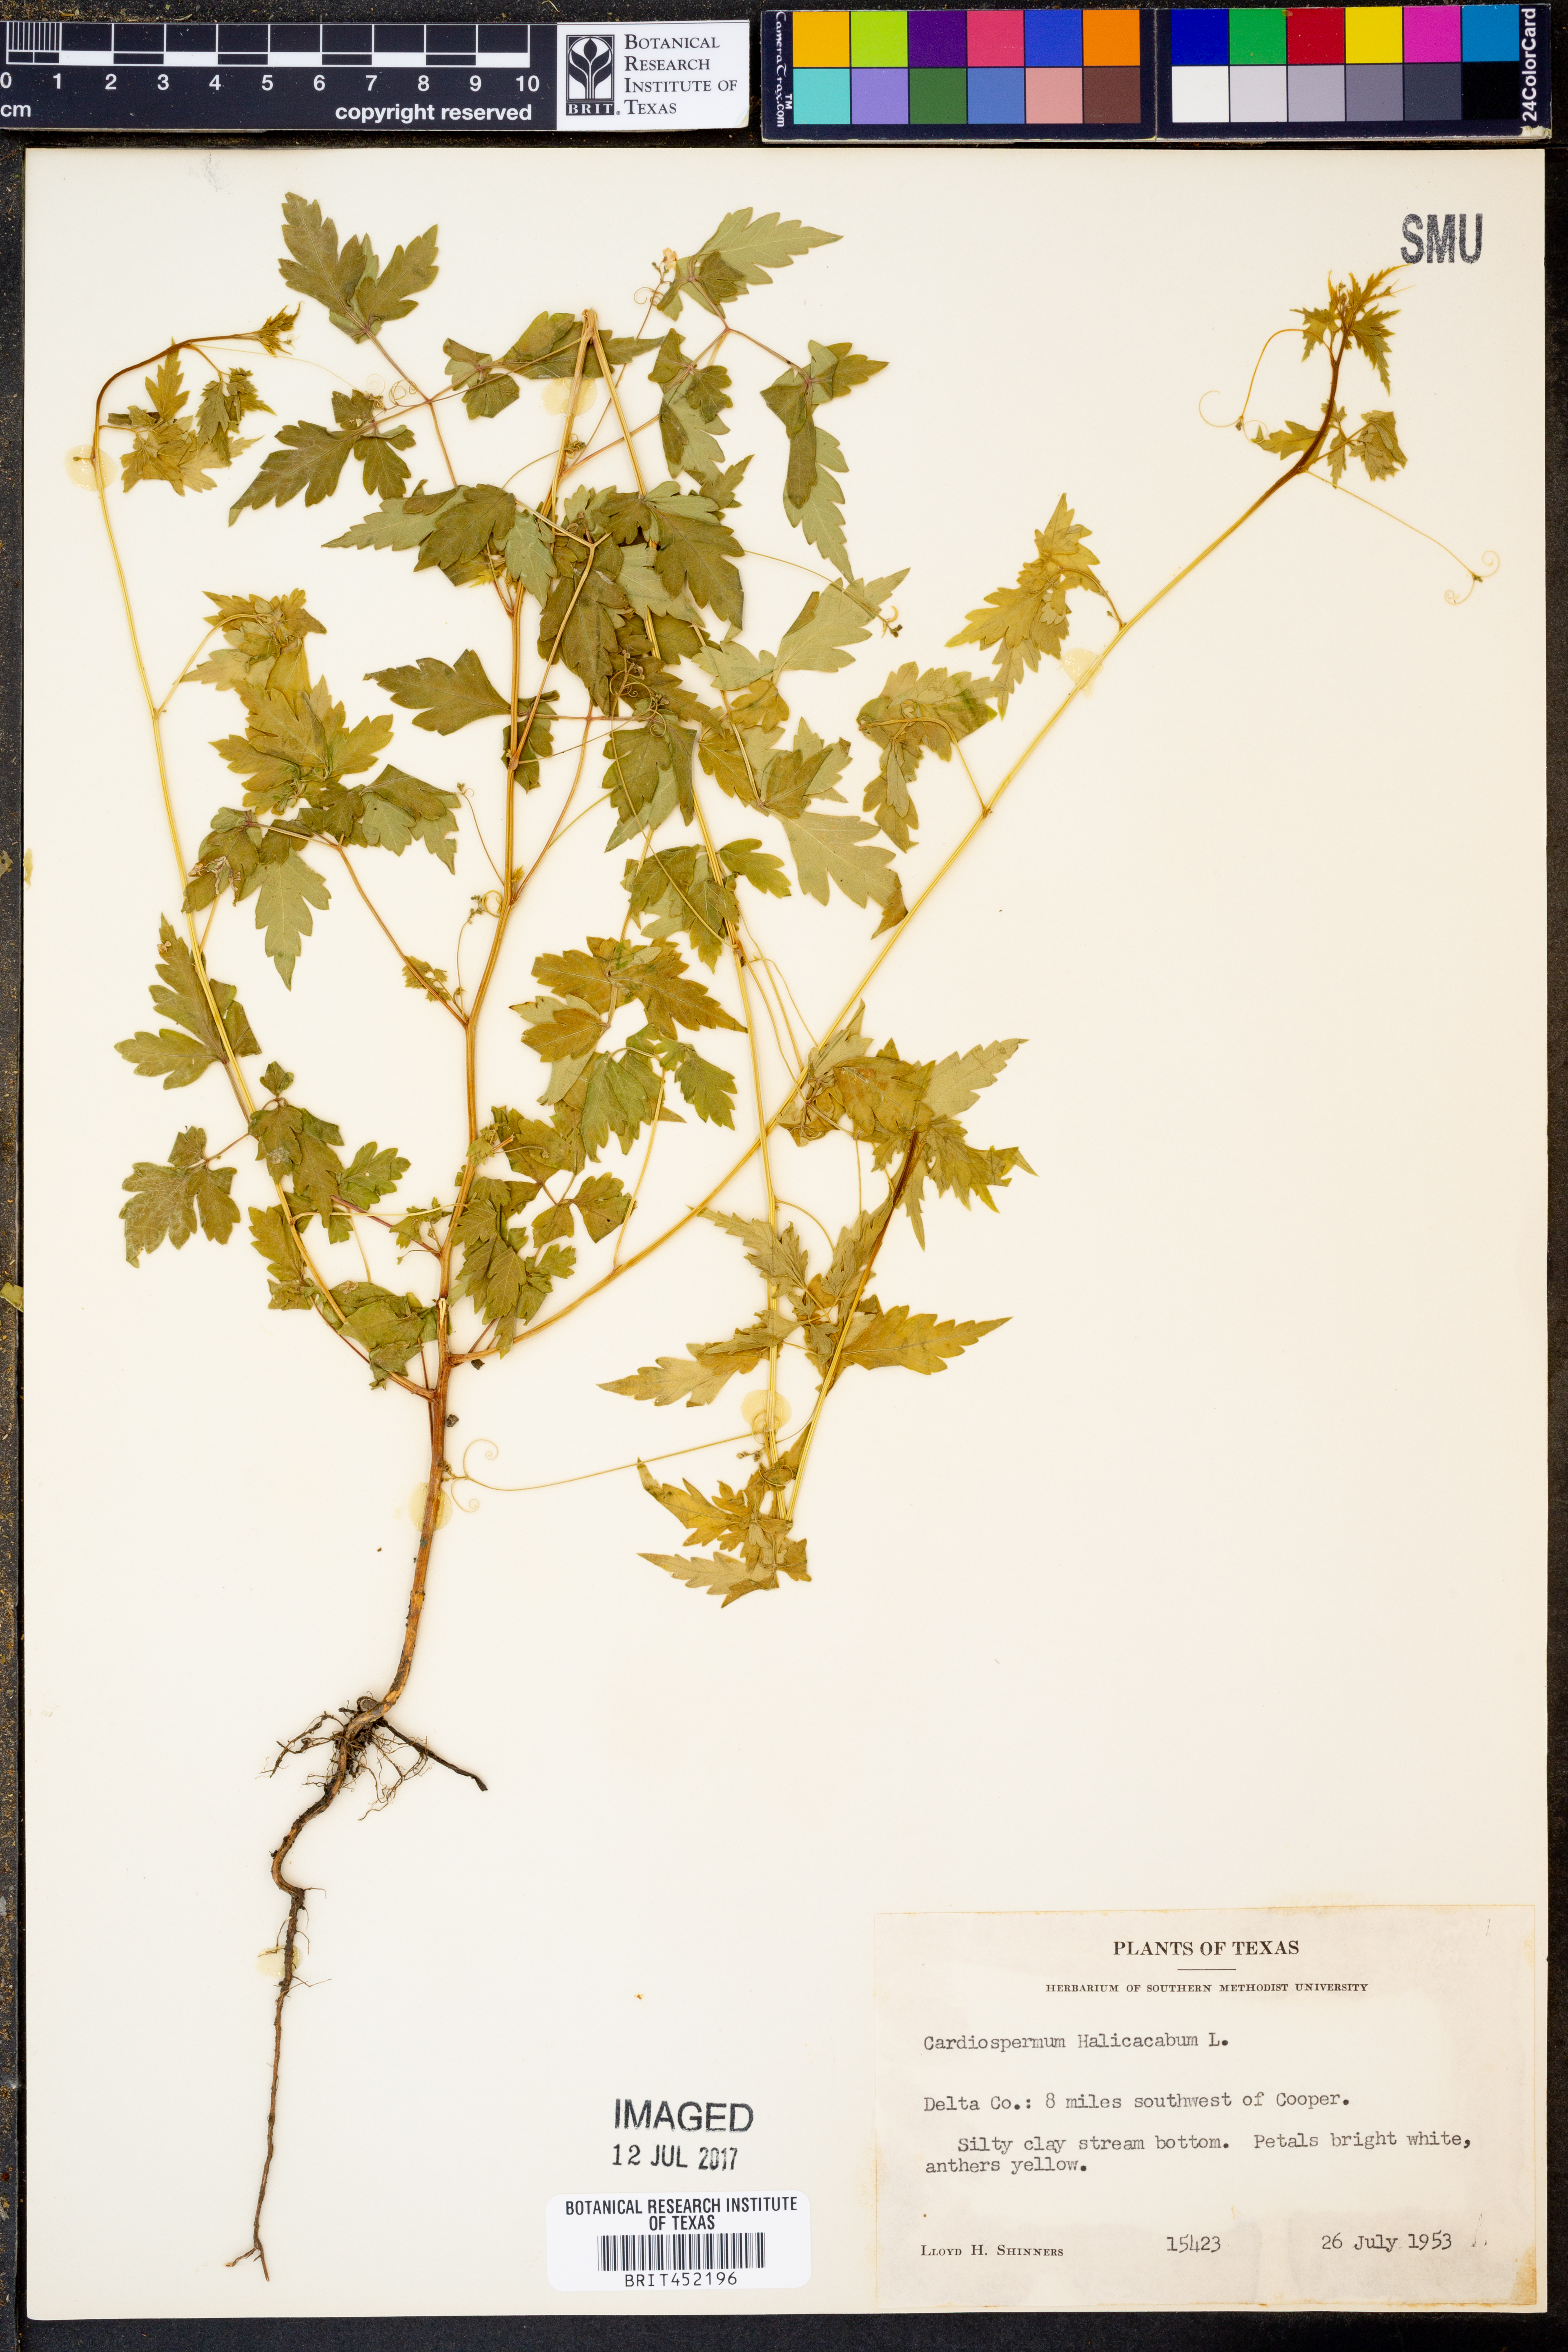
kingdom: Plantae
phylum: Tracheophyta
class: Magnoliopsida
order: Sapindales
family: Sapindaceae
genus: Cardiospermum
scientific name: Cardiospermum halicacabum
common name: Balloon vine
